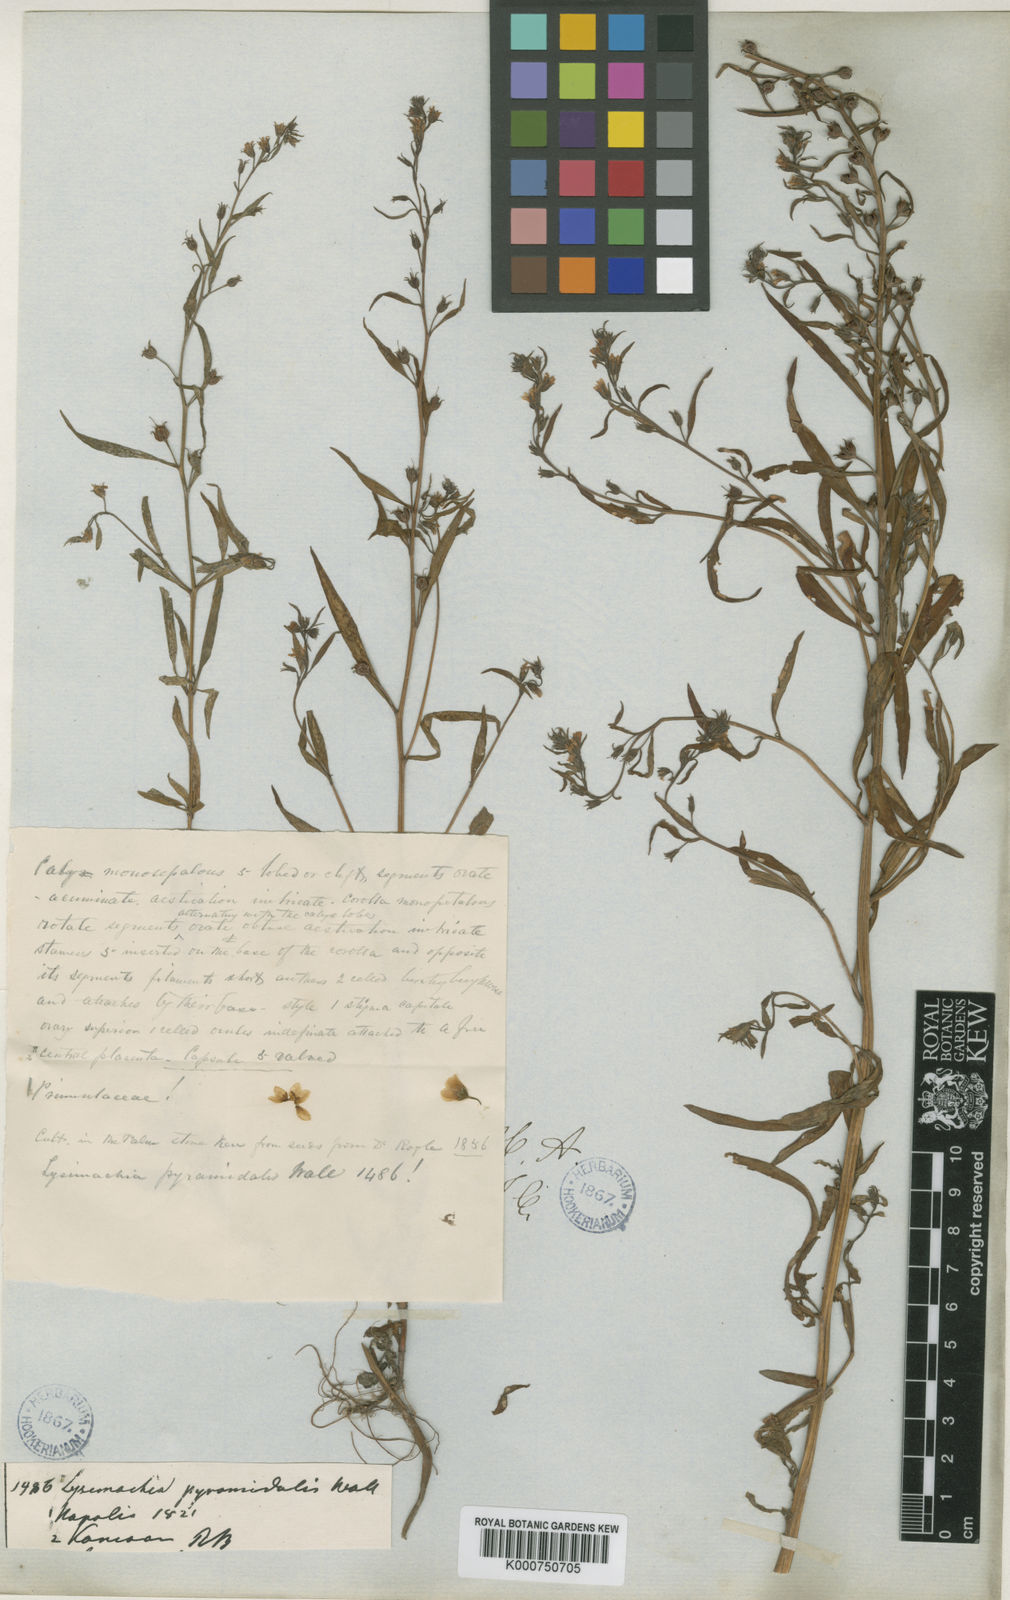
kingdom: Plantae
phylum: Tracheophyta
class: Magnoliopsida
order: Ericales
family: Primulaceae
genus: Lysimachia
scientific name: Lysimachia pyramidalis
